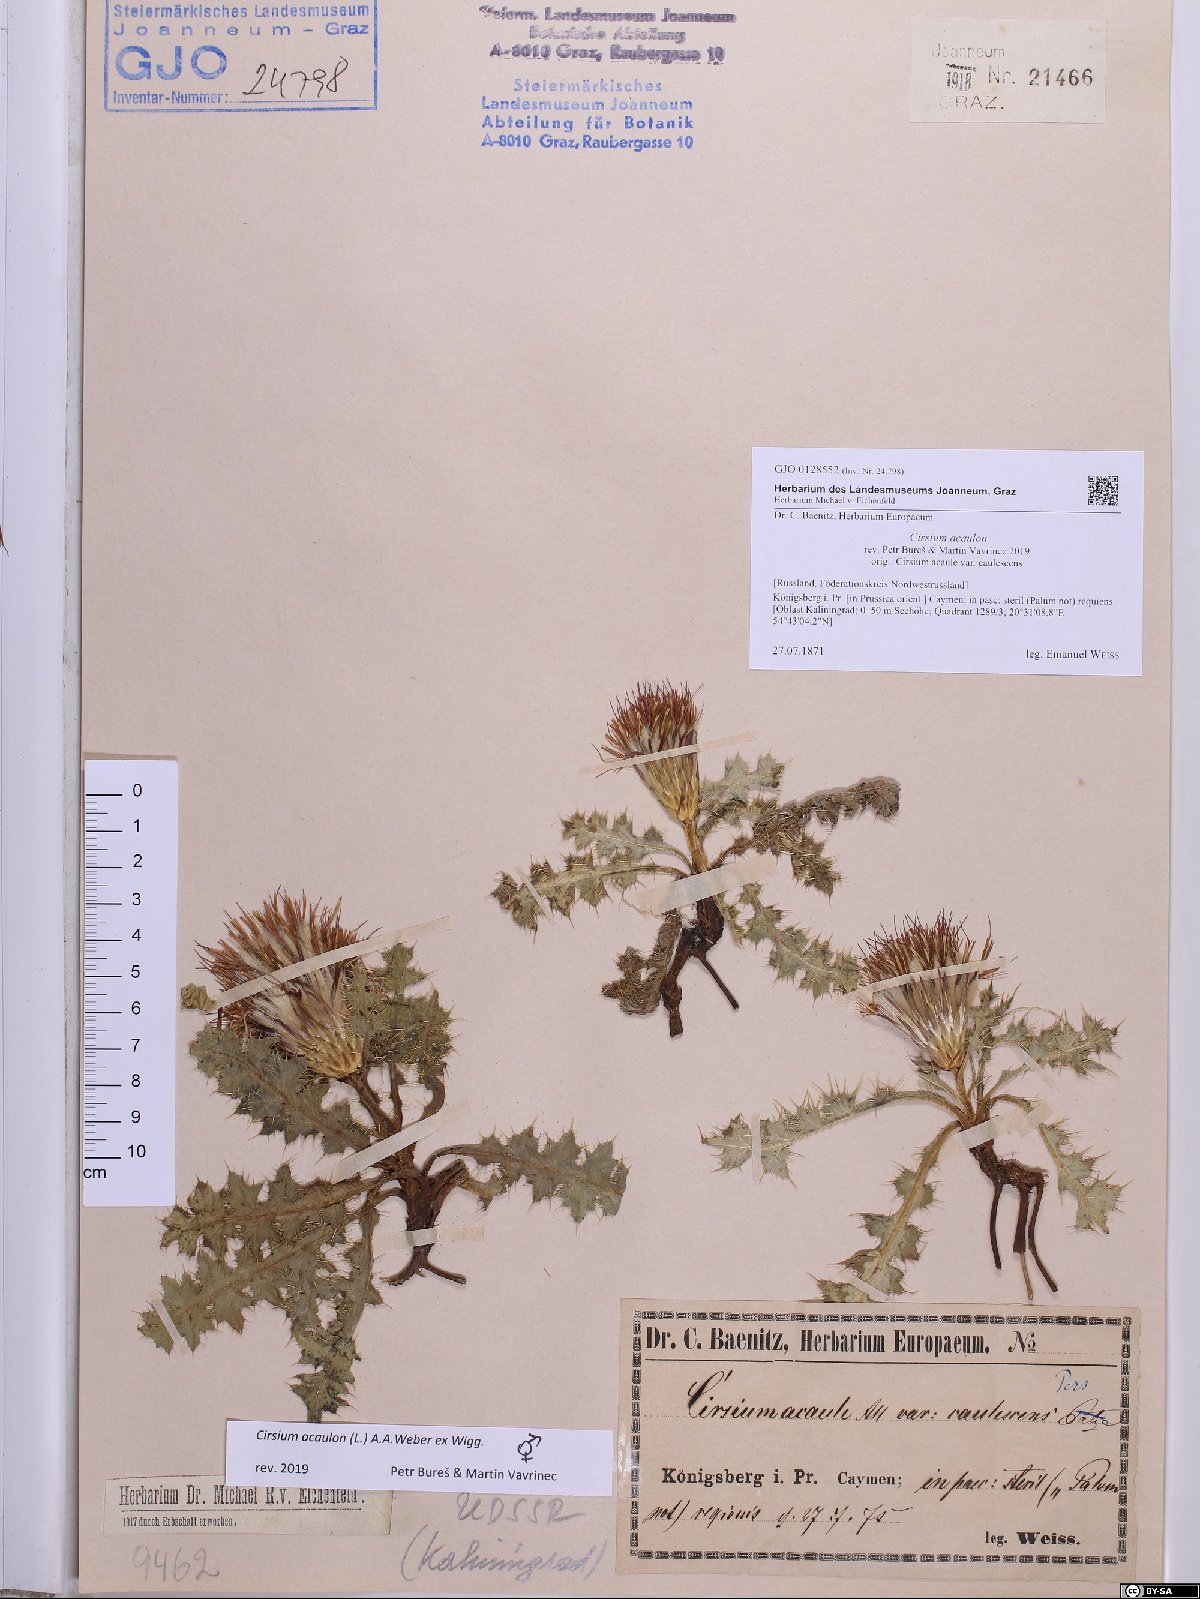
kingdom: Plantae
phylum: Tracheophyta
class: Magnoliopsida
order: Asterales
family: Asteraceae
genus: Cirsium
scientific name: Cirsium acaulon
